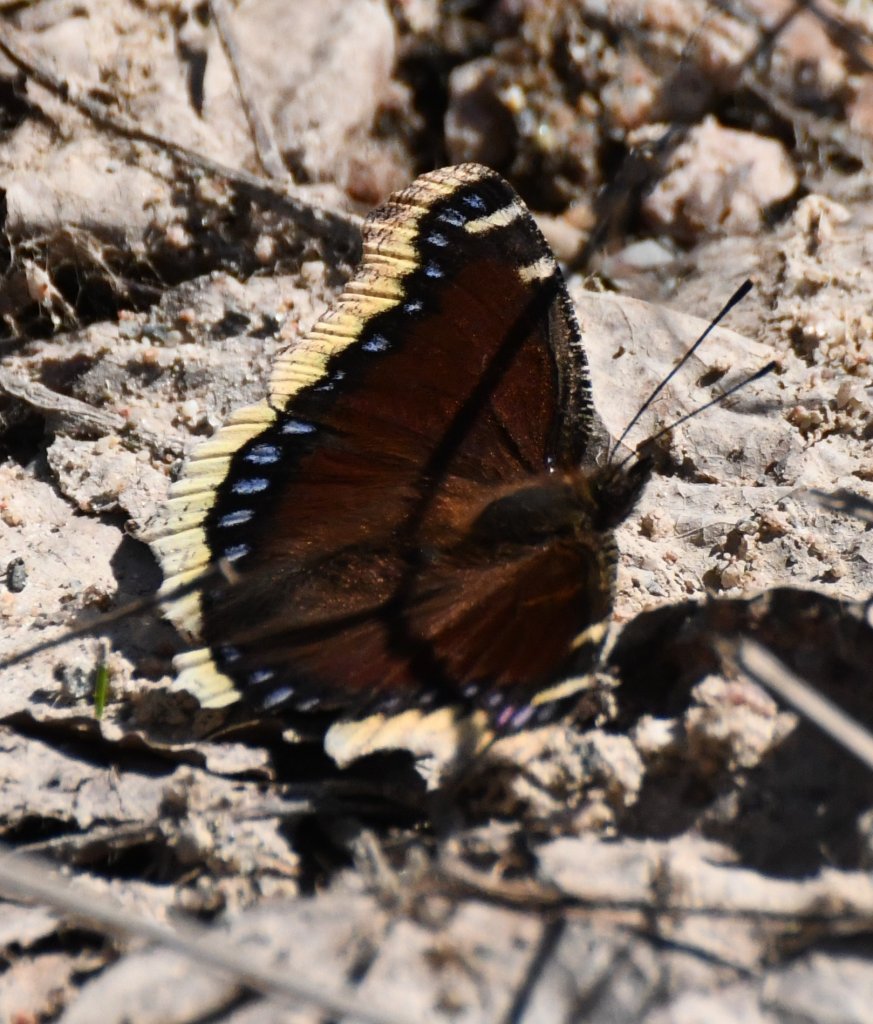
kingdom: Animalia
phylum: Arthropoda
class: Insecta
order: Lepidoptera
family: Nymphalidae
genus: Nymphalis
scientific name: Nymphalis antiopa
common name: Mourning Cloak
